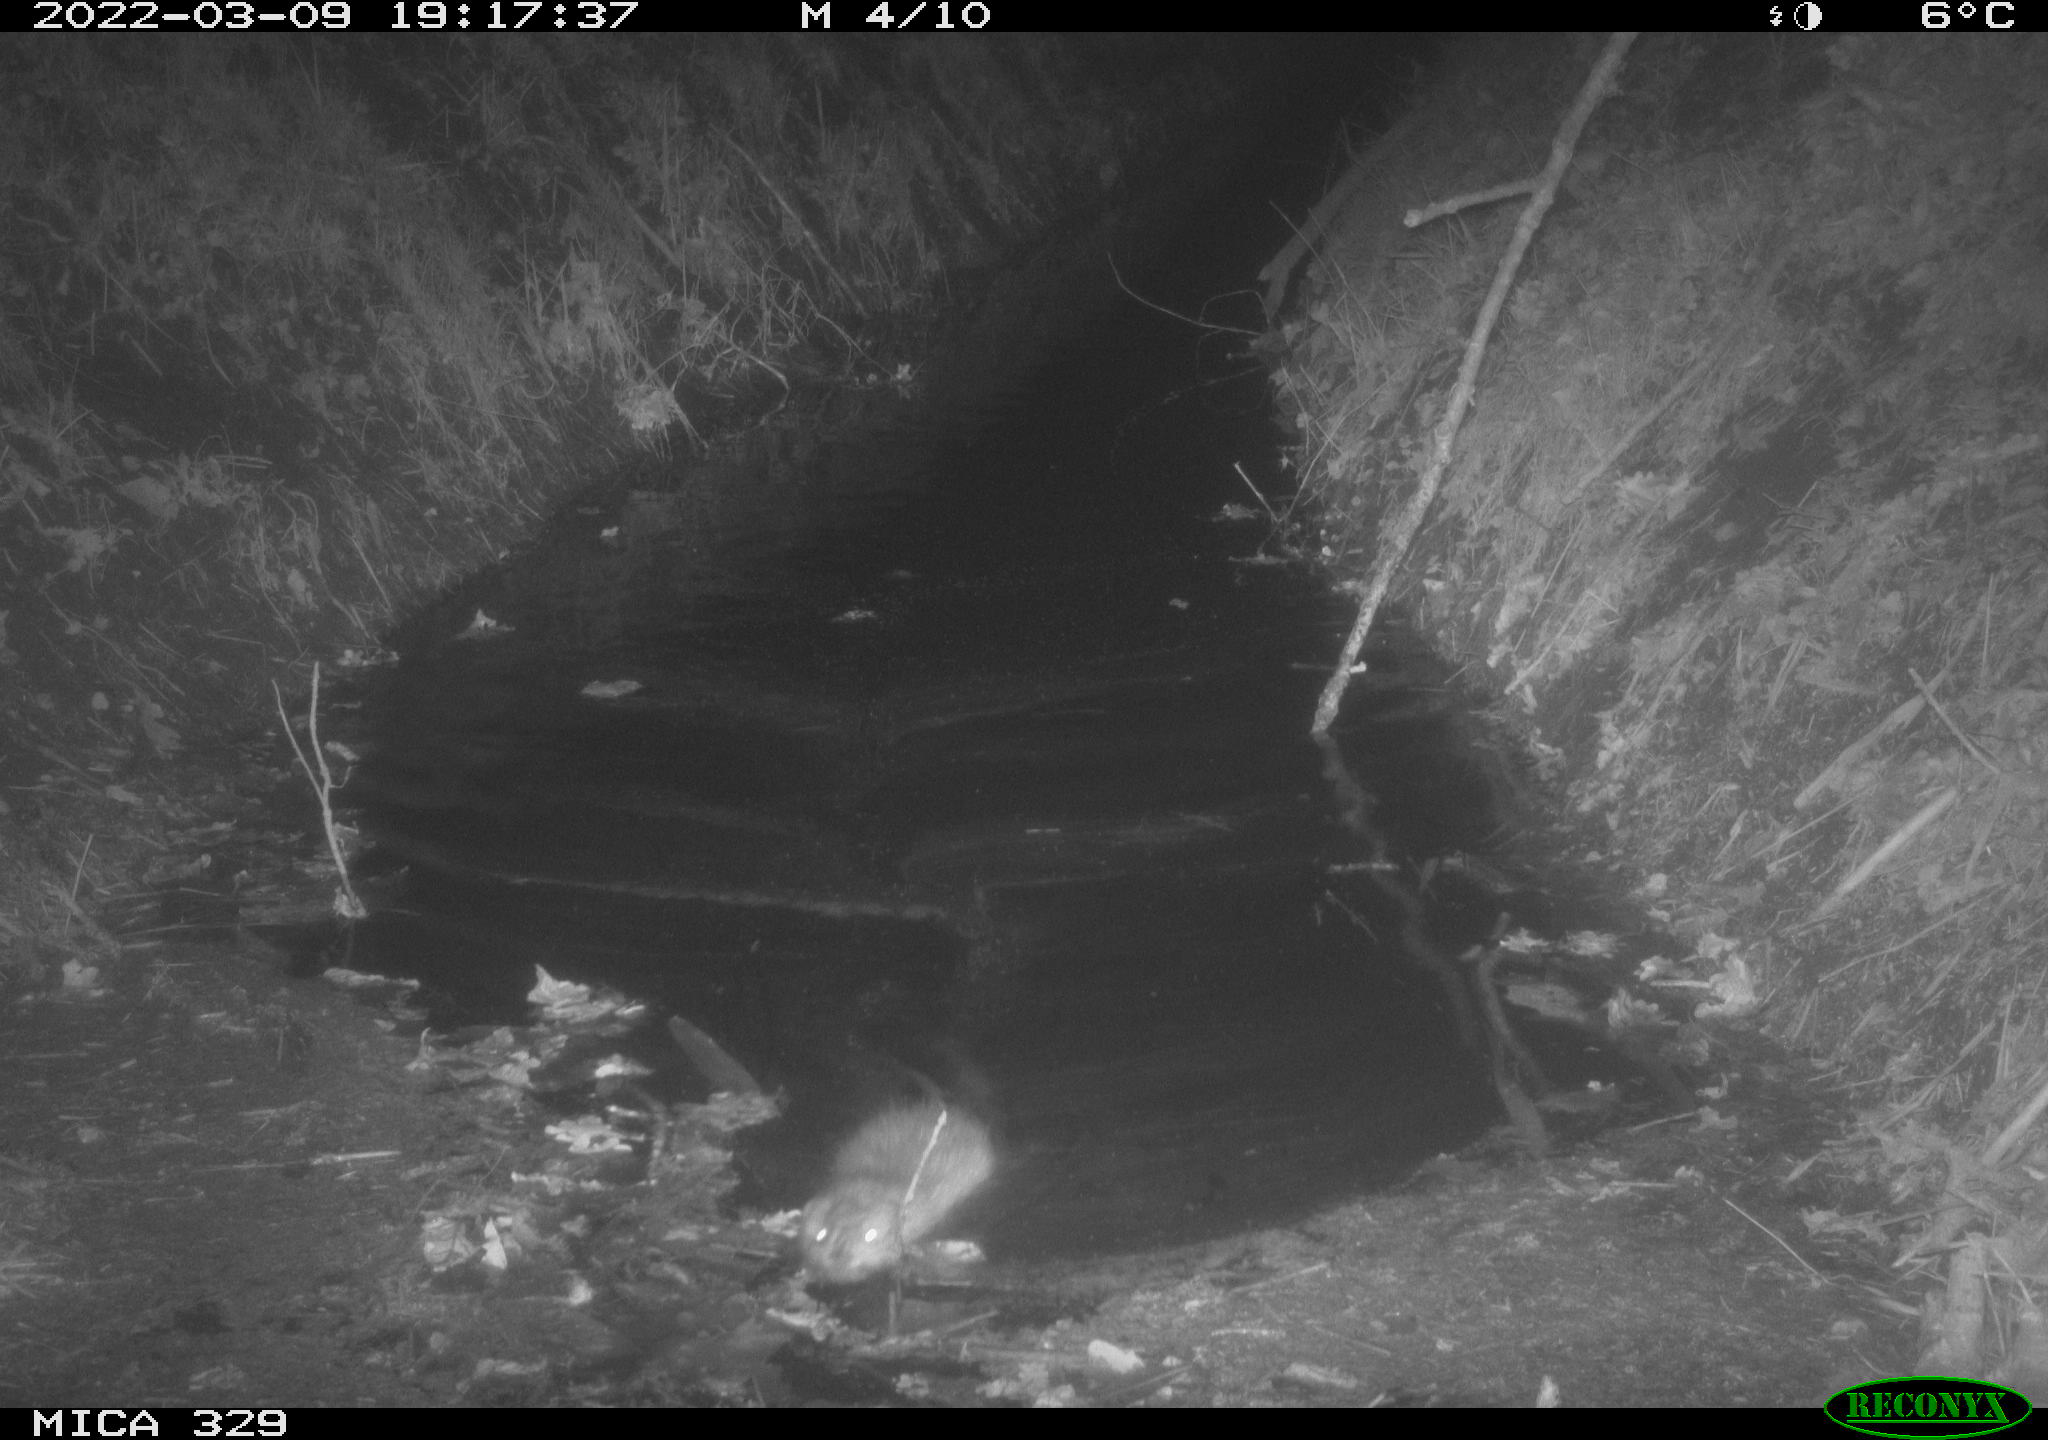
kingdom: Animalia
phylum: Chordata
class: Mammalia
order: Rodentia
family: Cricetidae
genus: Ondatra
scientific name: Ondatra zibethicus
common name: Muskrat
